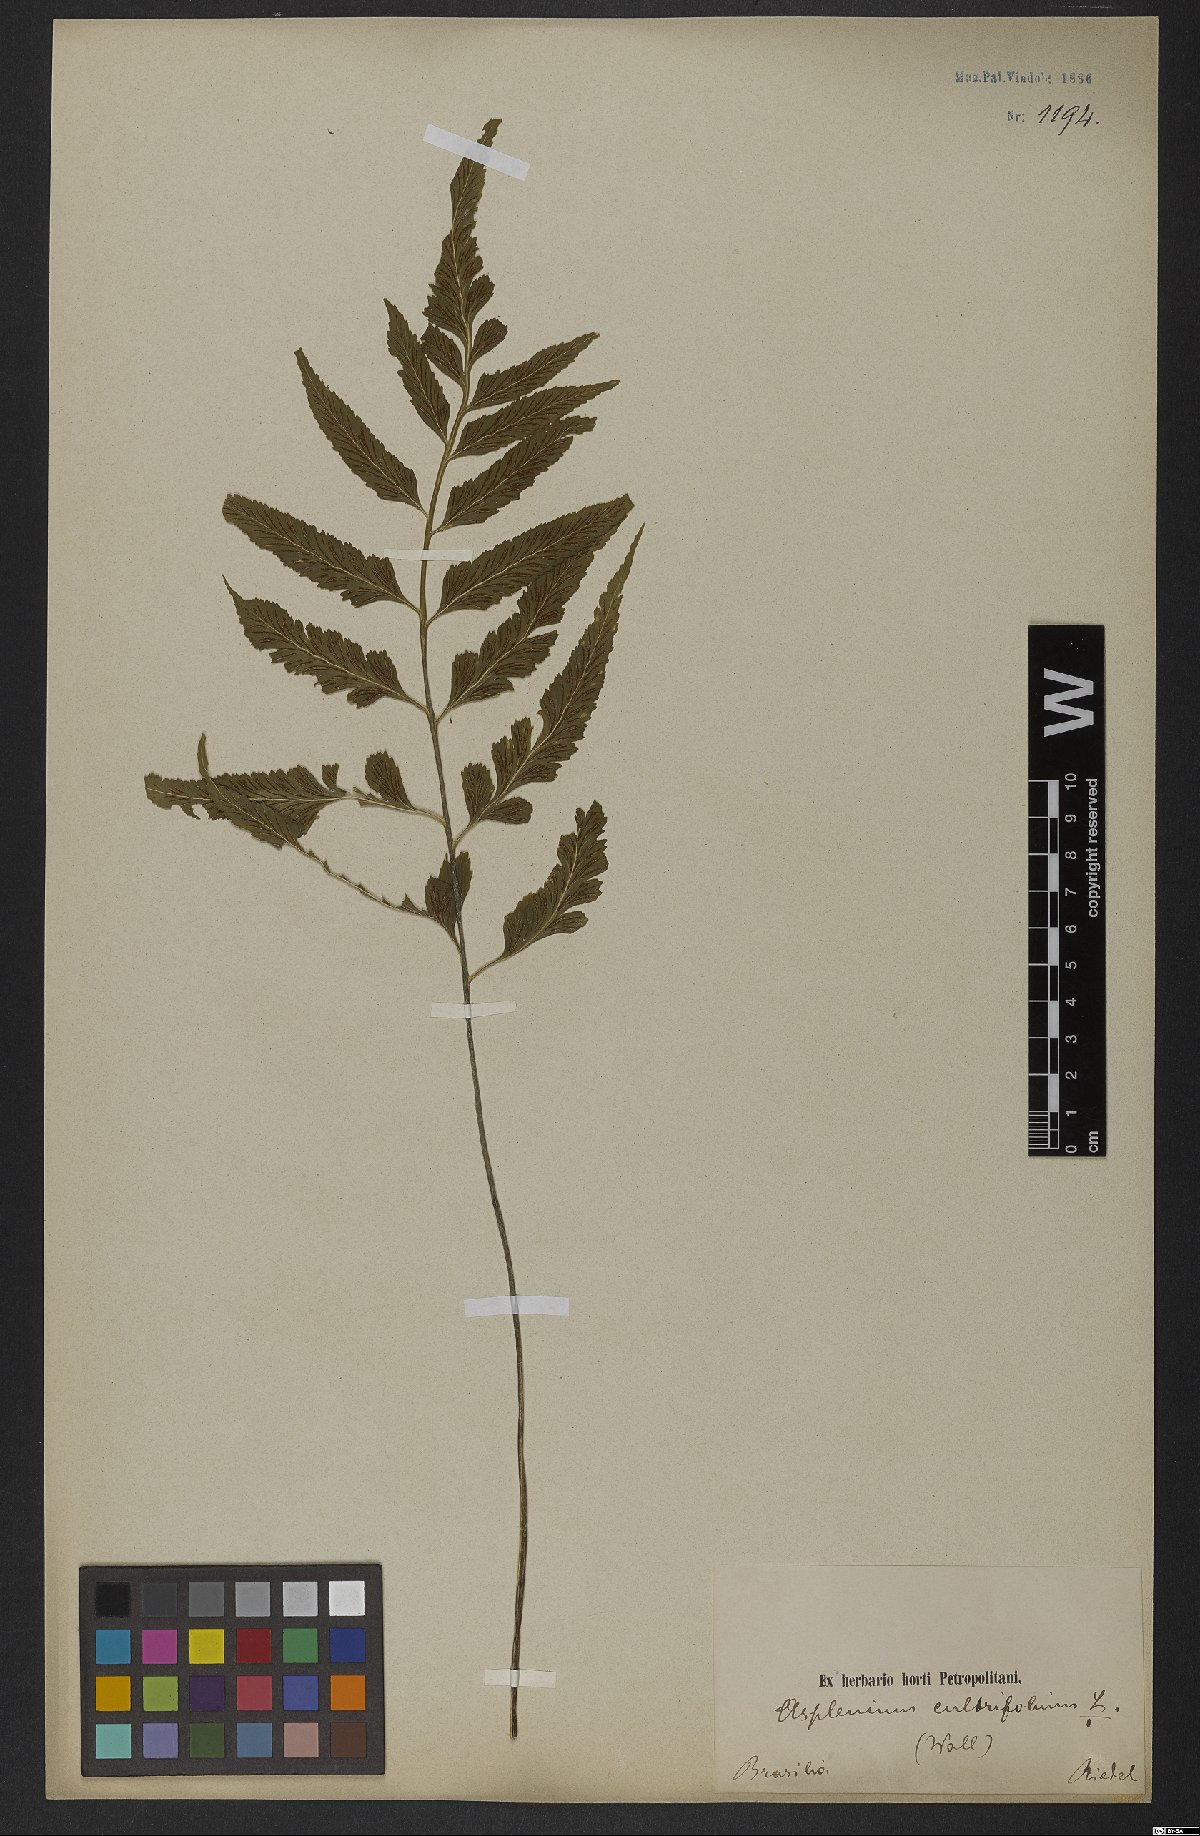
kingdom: Plantae
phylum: Tracheophyta
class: Polypodiopsida
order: Polypodiales
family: Athyriaceae
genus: Diplazium
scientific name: Diplazium cultrifolium
